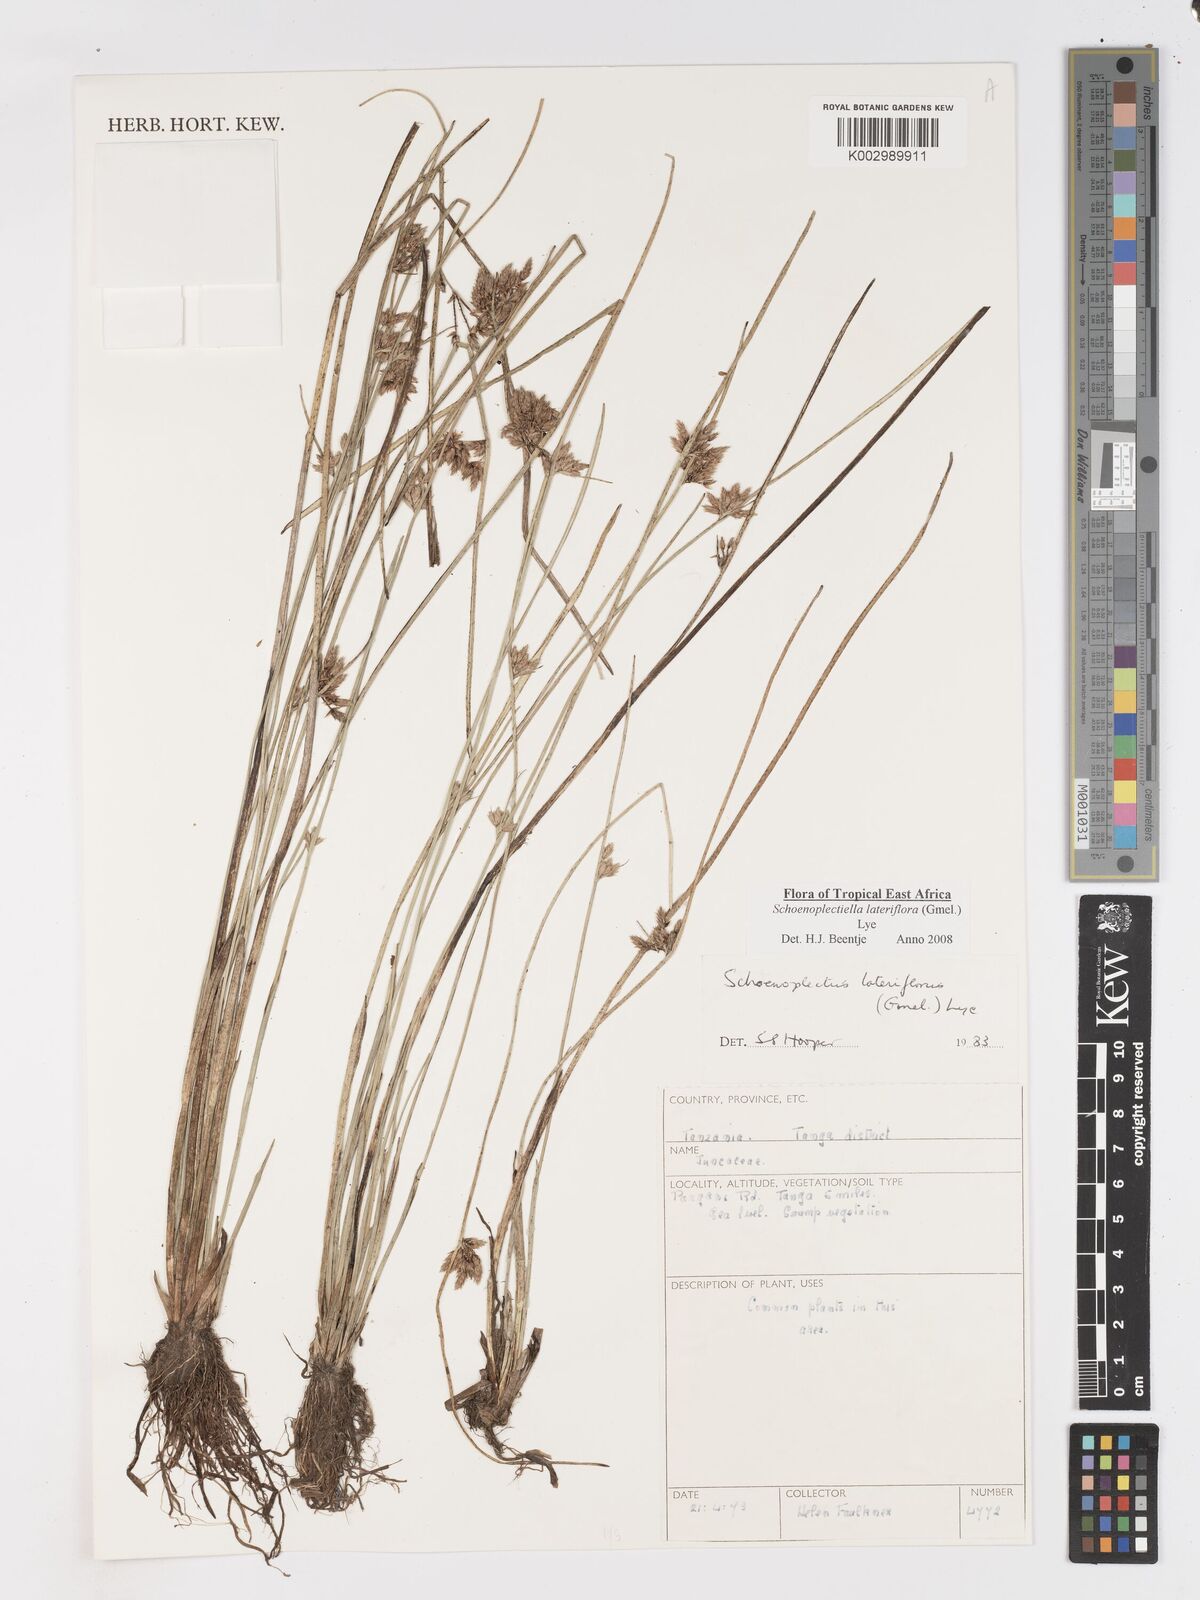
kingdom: Plantae
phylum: Tracheophyta
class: Liliopsida
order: Poales
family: Cyperaceae
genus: Schoenoplectiella
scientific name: Schoenoplectiella lateriflora
